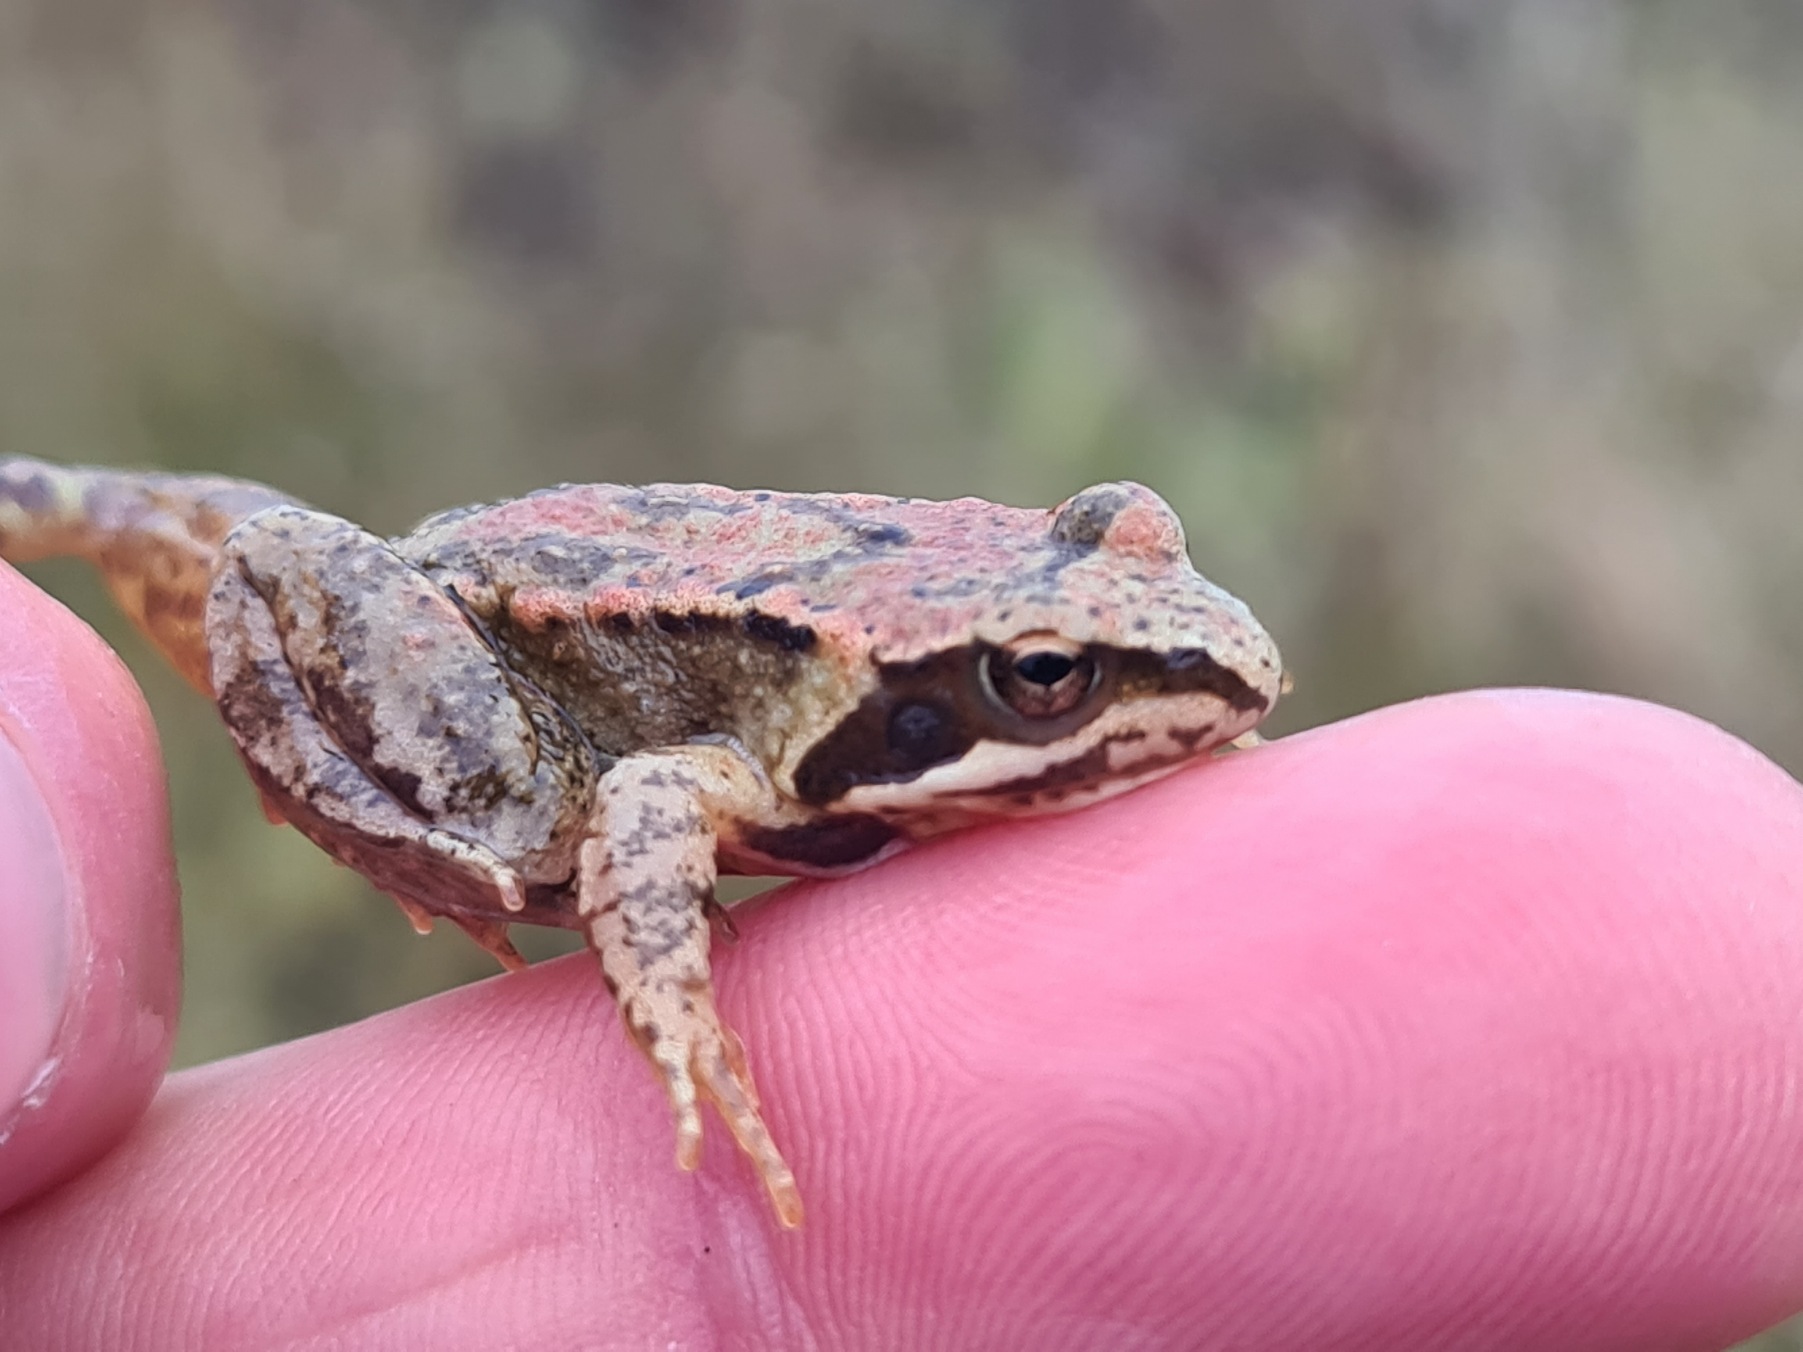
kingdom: Animalia
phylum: Chordata
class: Amphibia
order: Anura
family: Ranidae
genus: Rana
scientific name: Rana temporaria
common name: Butsnudet frø
